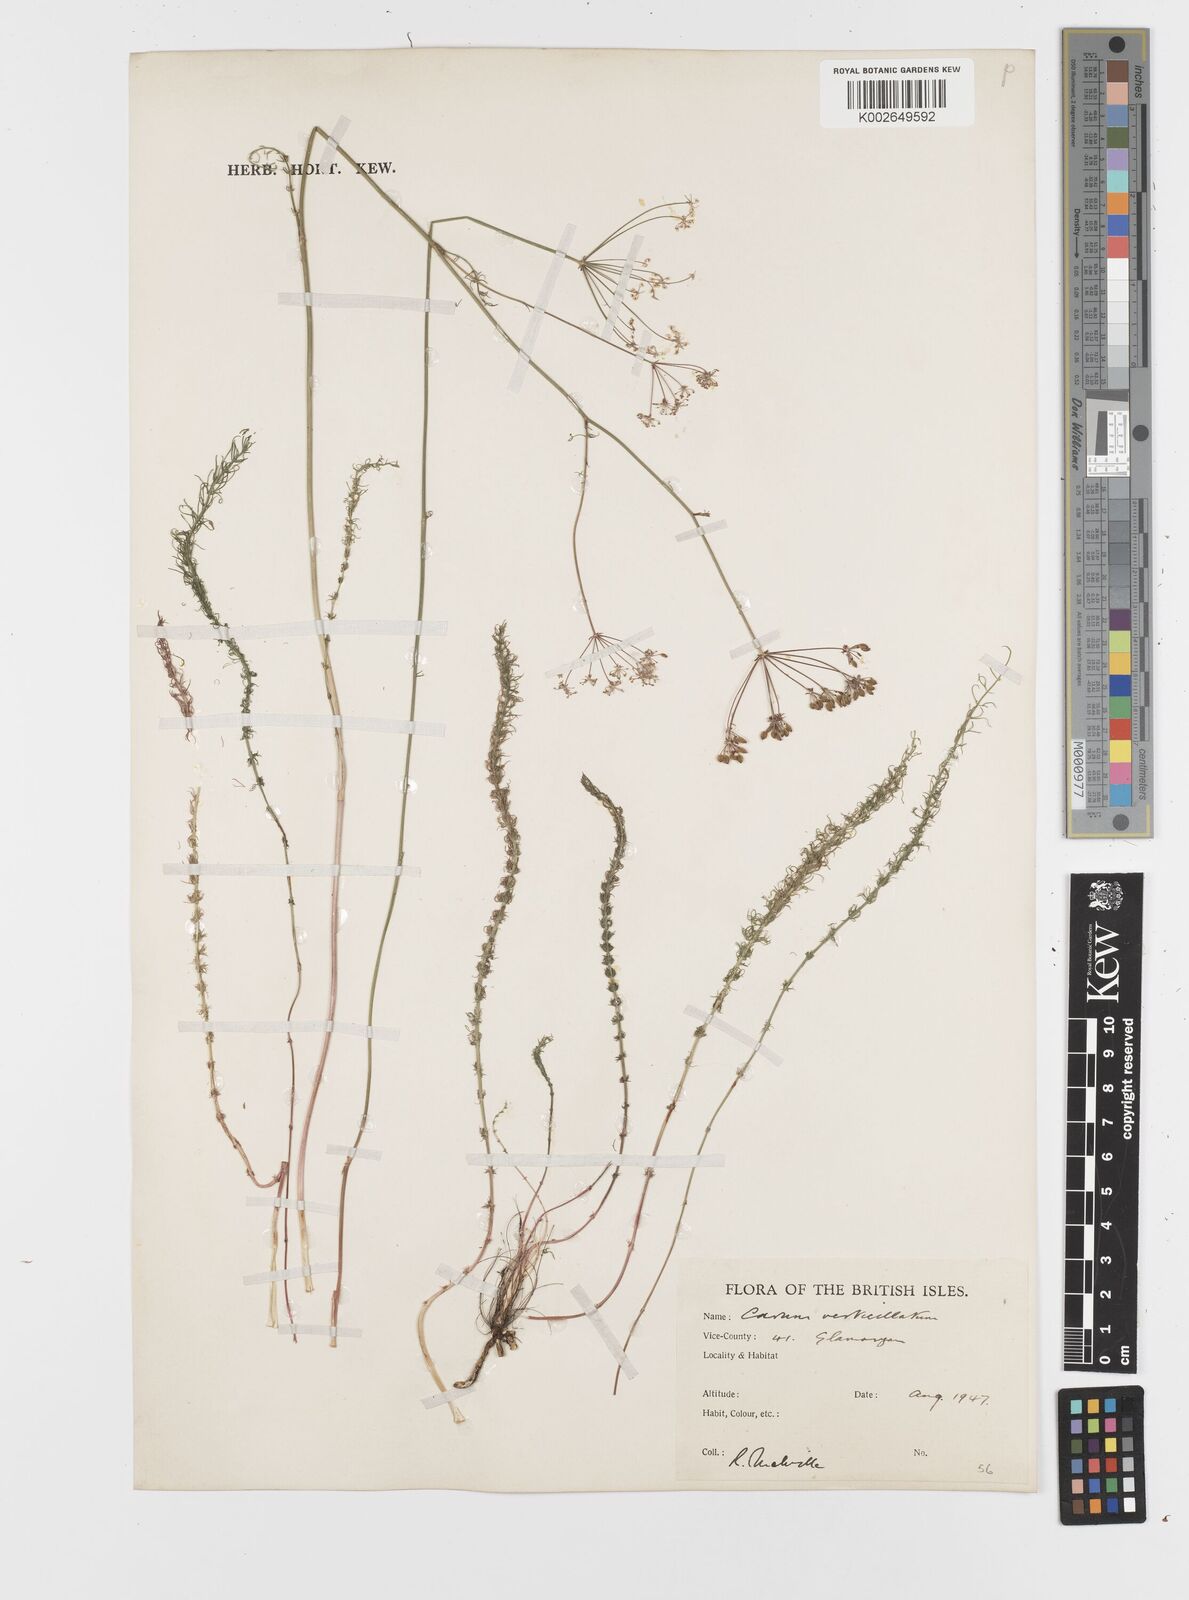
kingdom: Plantae
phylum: Tracheophyta
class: Magnoliopsida
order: Apiales
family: Apiaceae
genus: Trocdaris
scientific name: Trocdaris verticillatum
